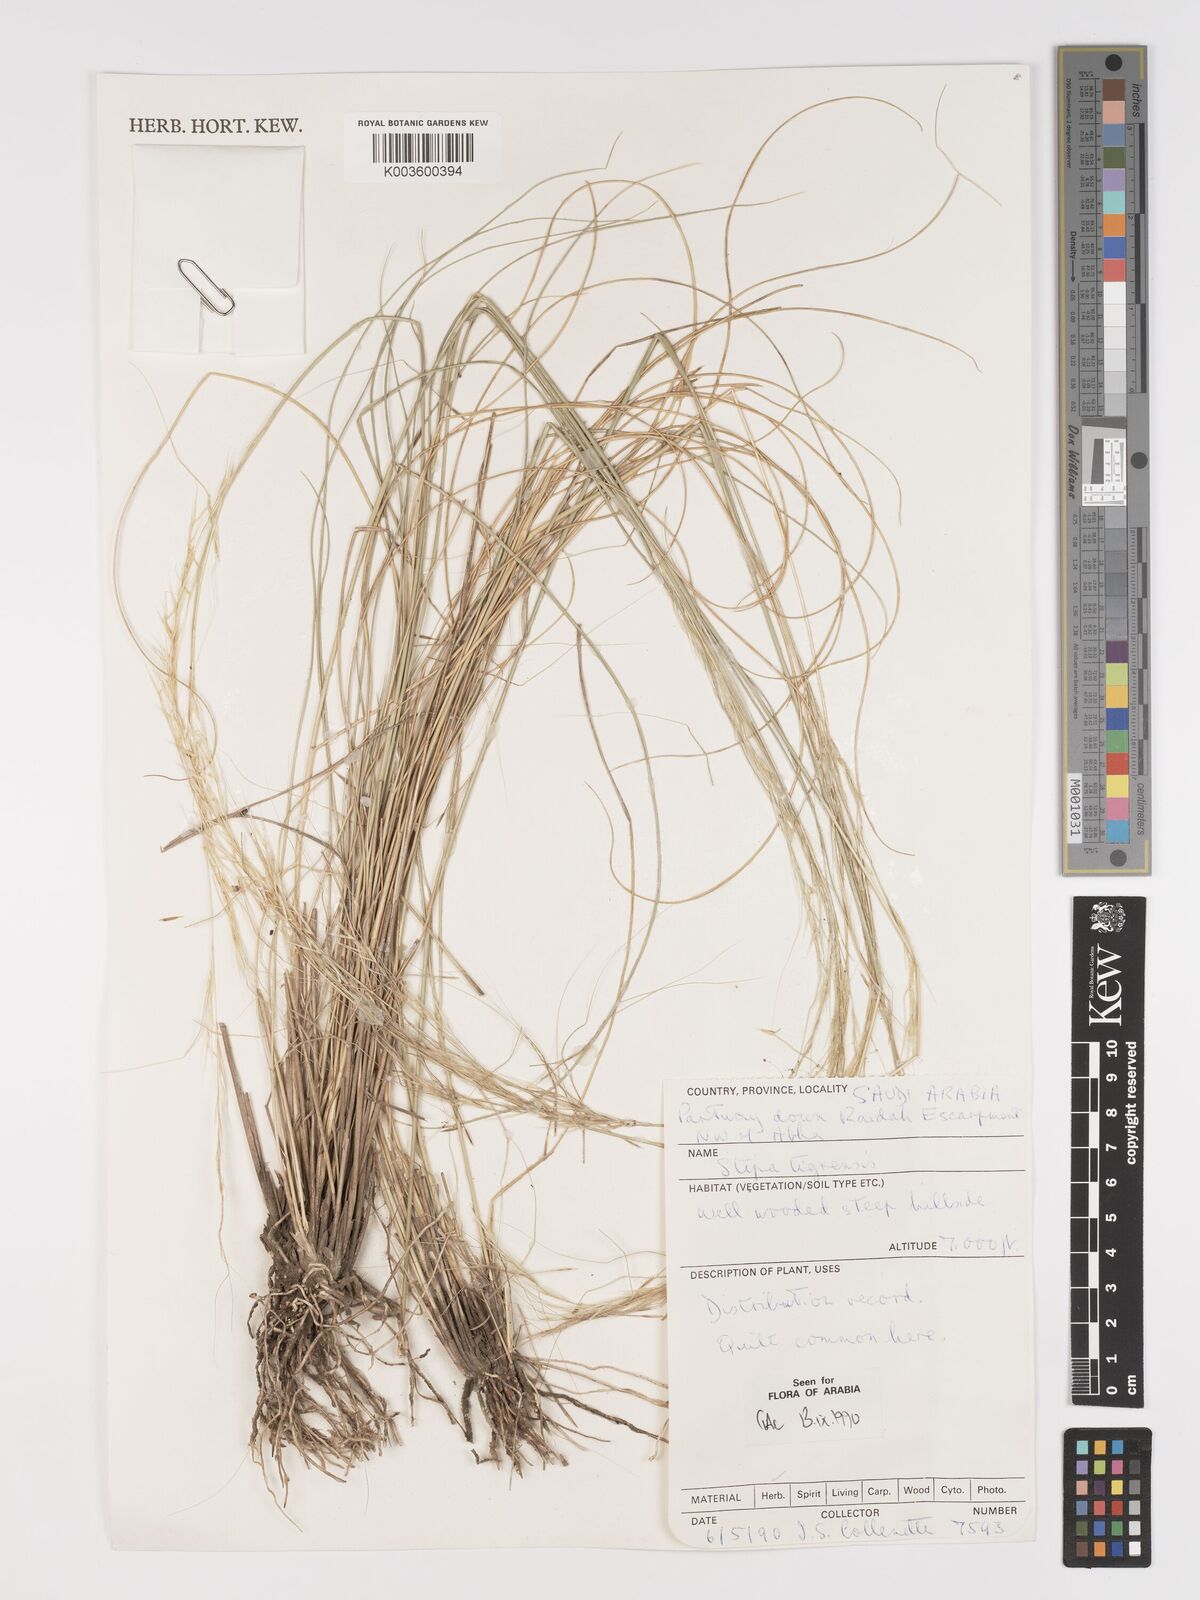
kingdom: Plantae
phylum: Tracheophyta
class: Liliopsida
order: Poales
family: Poaceae
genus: Stipa
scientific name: Stipa tigrensis
